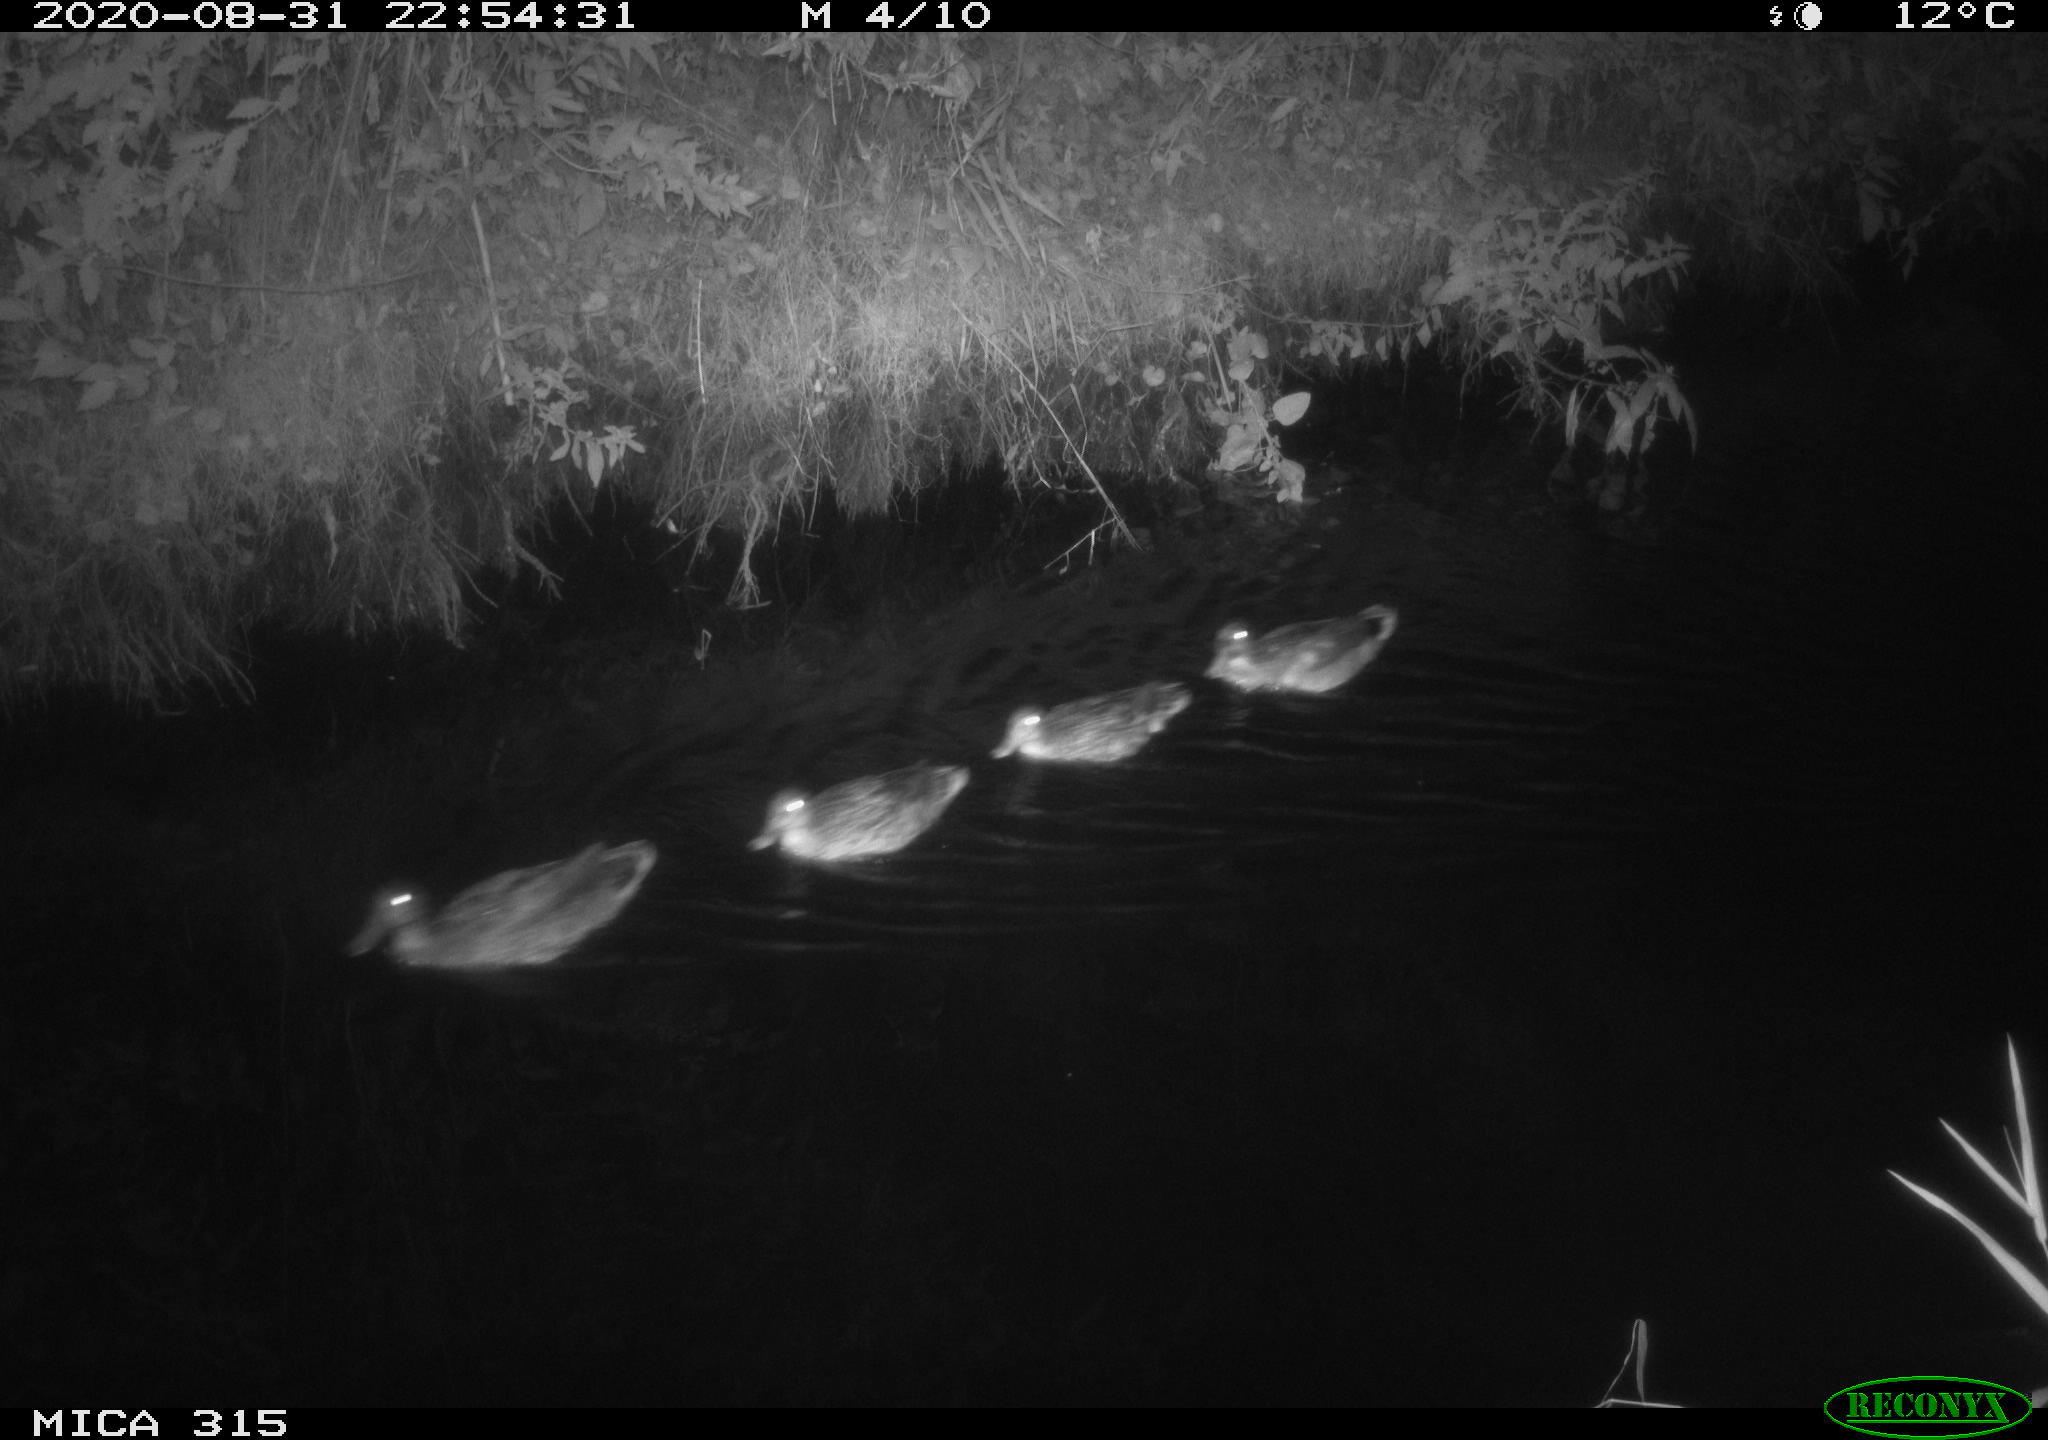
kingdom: Animalia
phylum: Chordata
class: Aves
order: Anseriformes
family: Anatidae
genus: Anas
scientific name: Anas platyrhynchos
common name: Mallard
